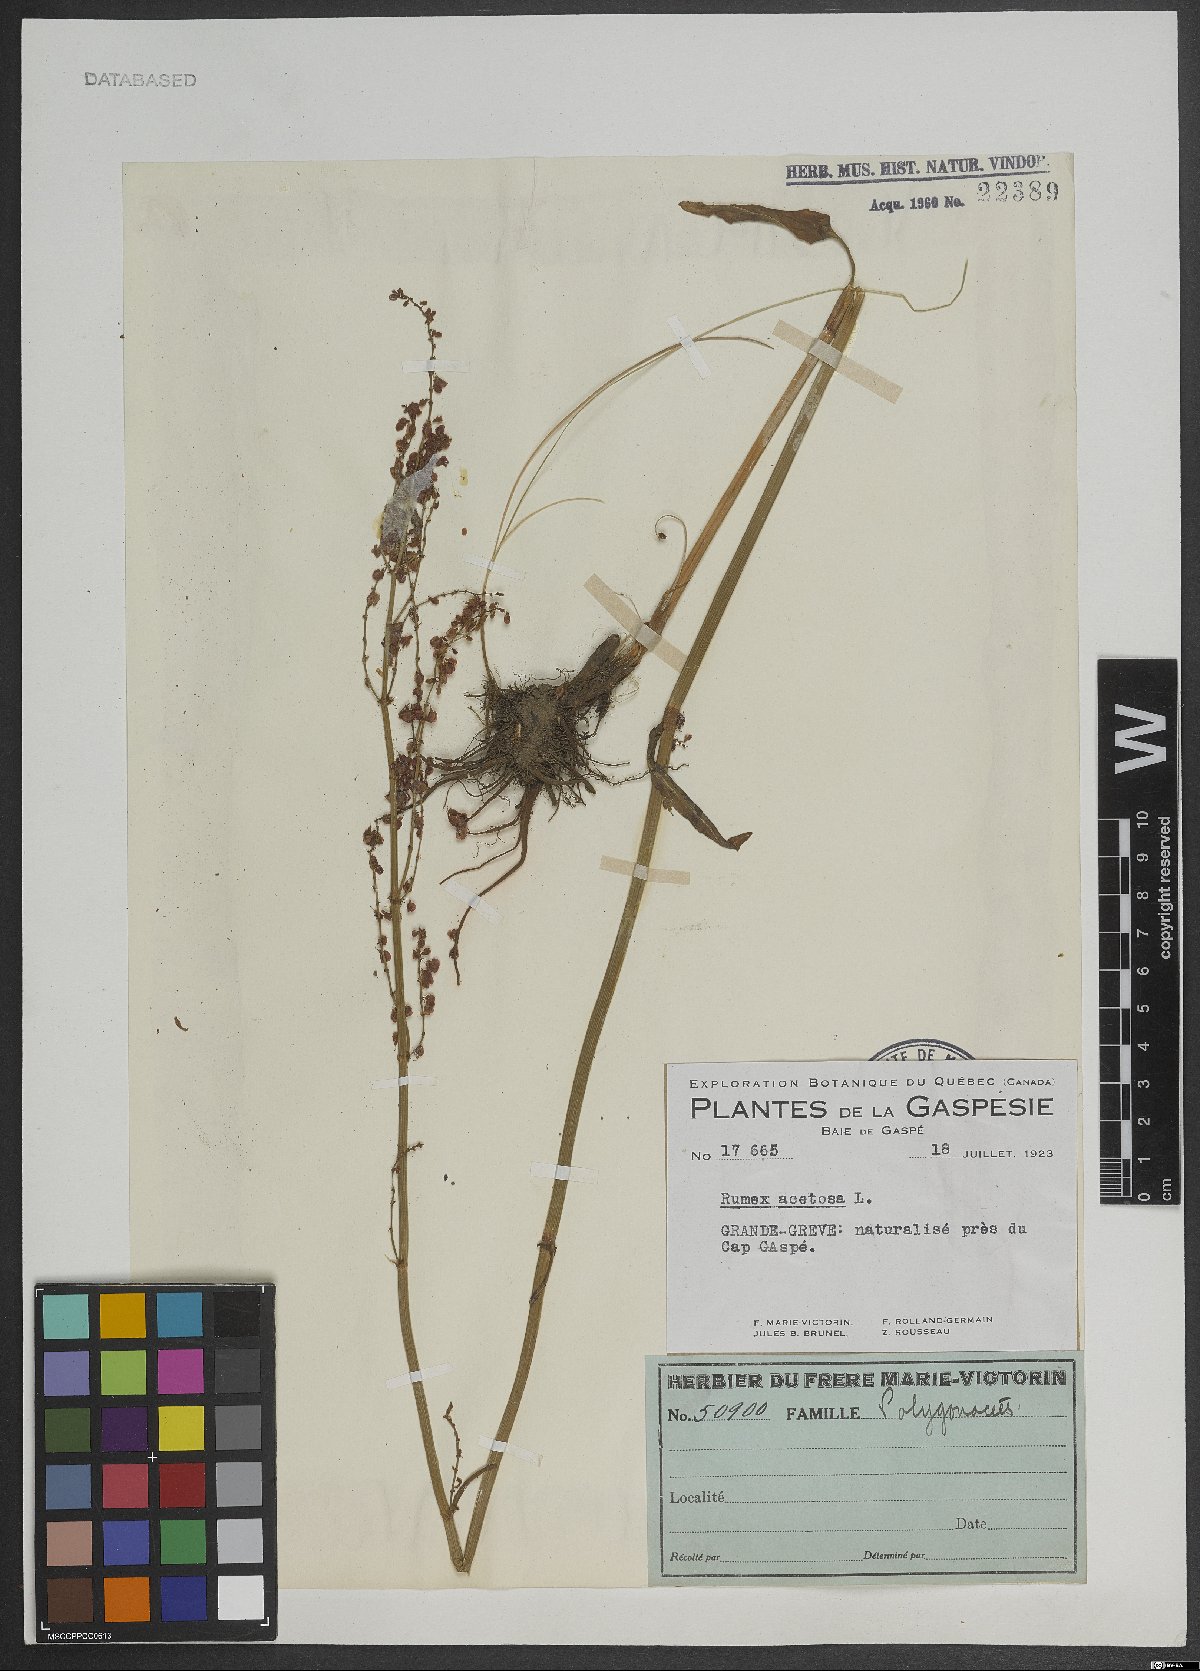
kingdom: Plantae
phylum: Tracheophyta
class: Magnoliopsida
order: Caryophyllales
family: Polygonaceae
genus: Rumex
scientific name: Rumex acetosa
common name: Garden sorrel
